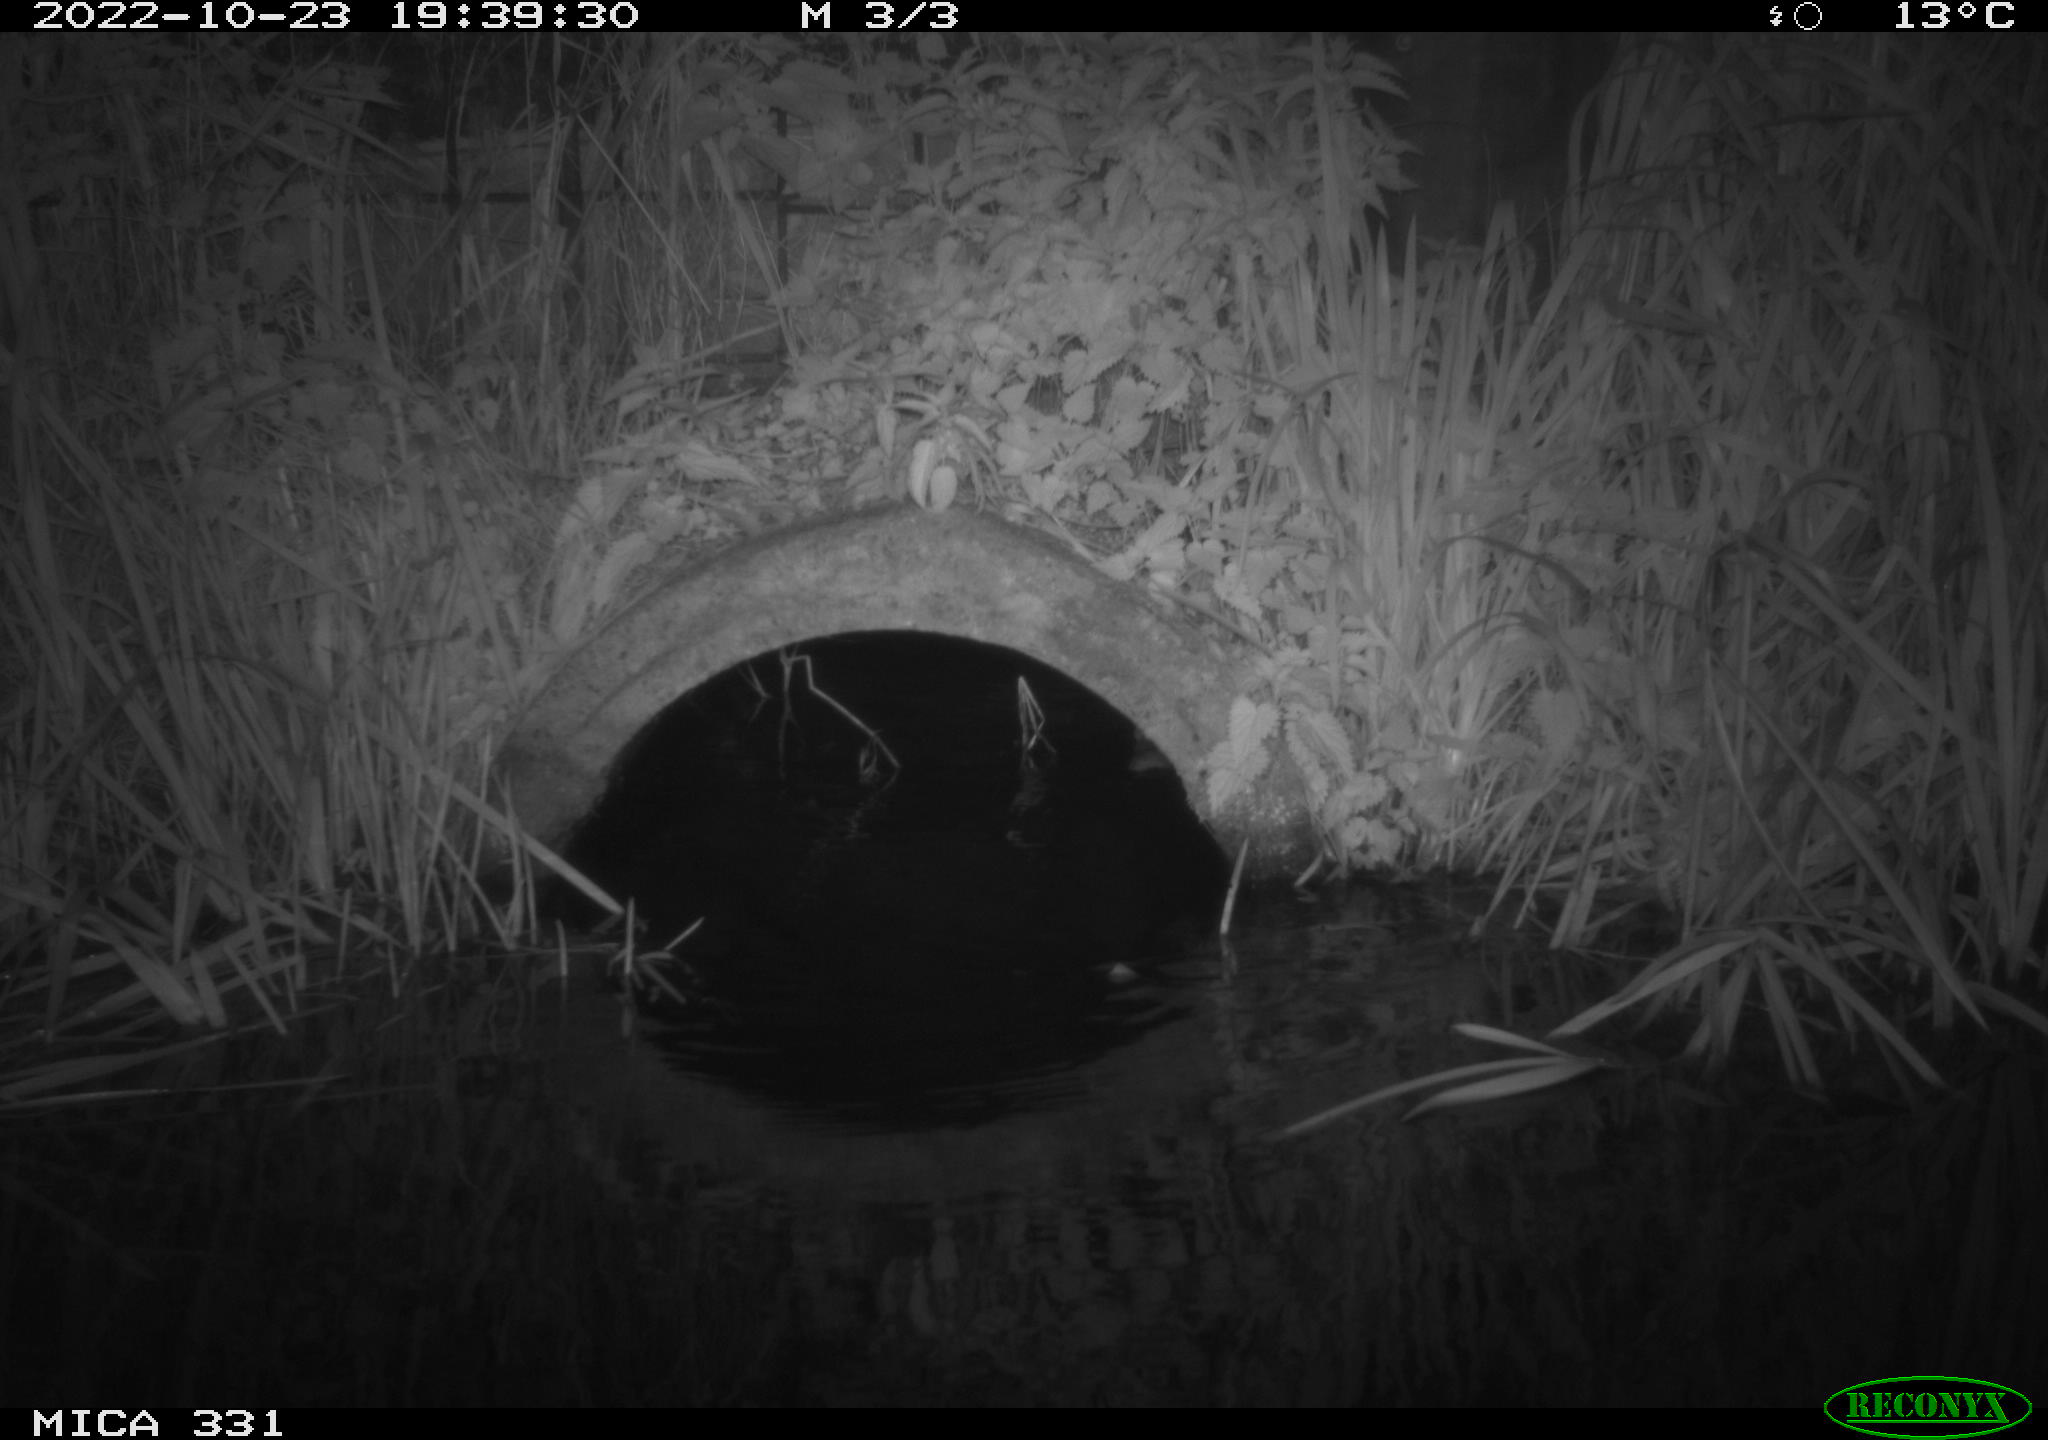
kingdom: Animalia
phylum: Chordata
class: Mammalia
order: Rodentia
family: Muridae
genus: Rattus
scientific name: Rattus norvegicus
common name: Brown rat
